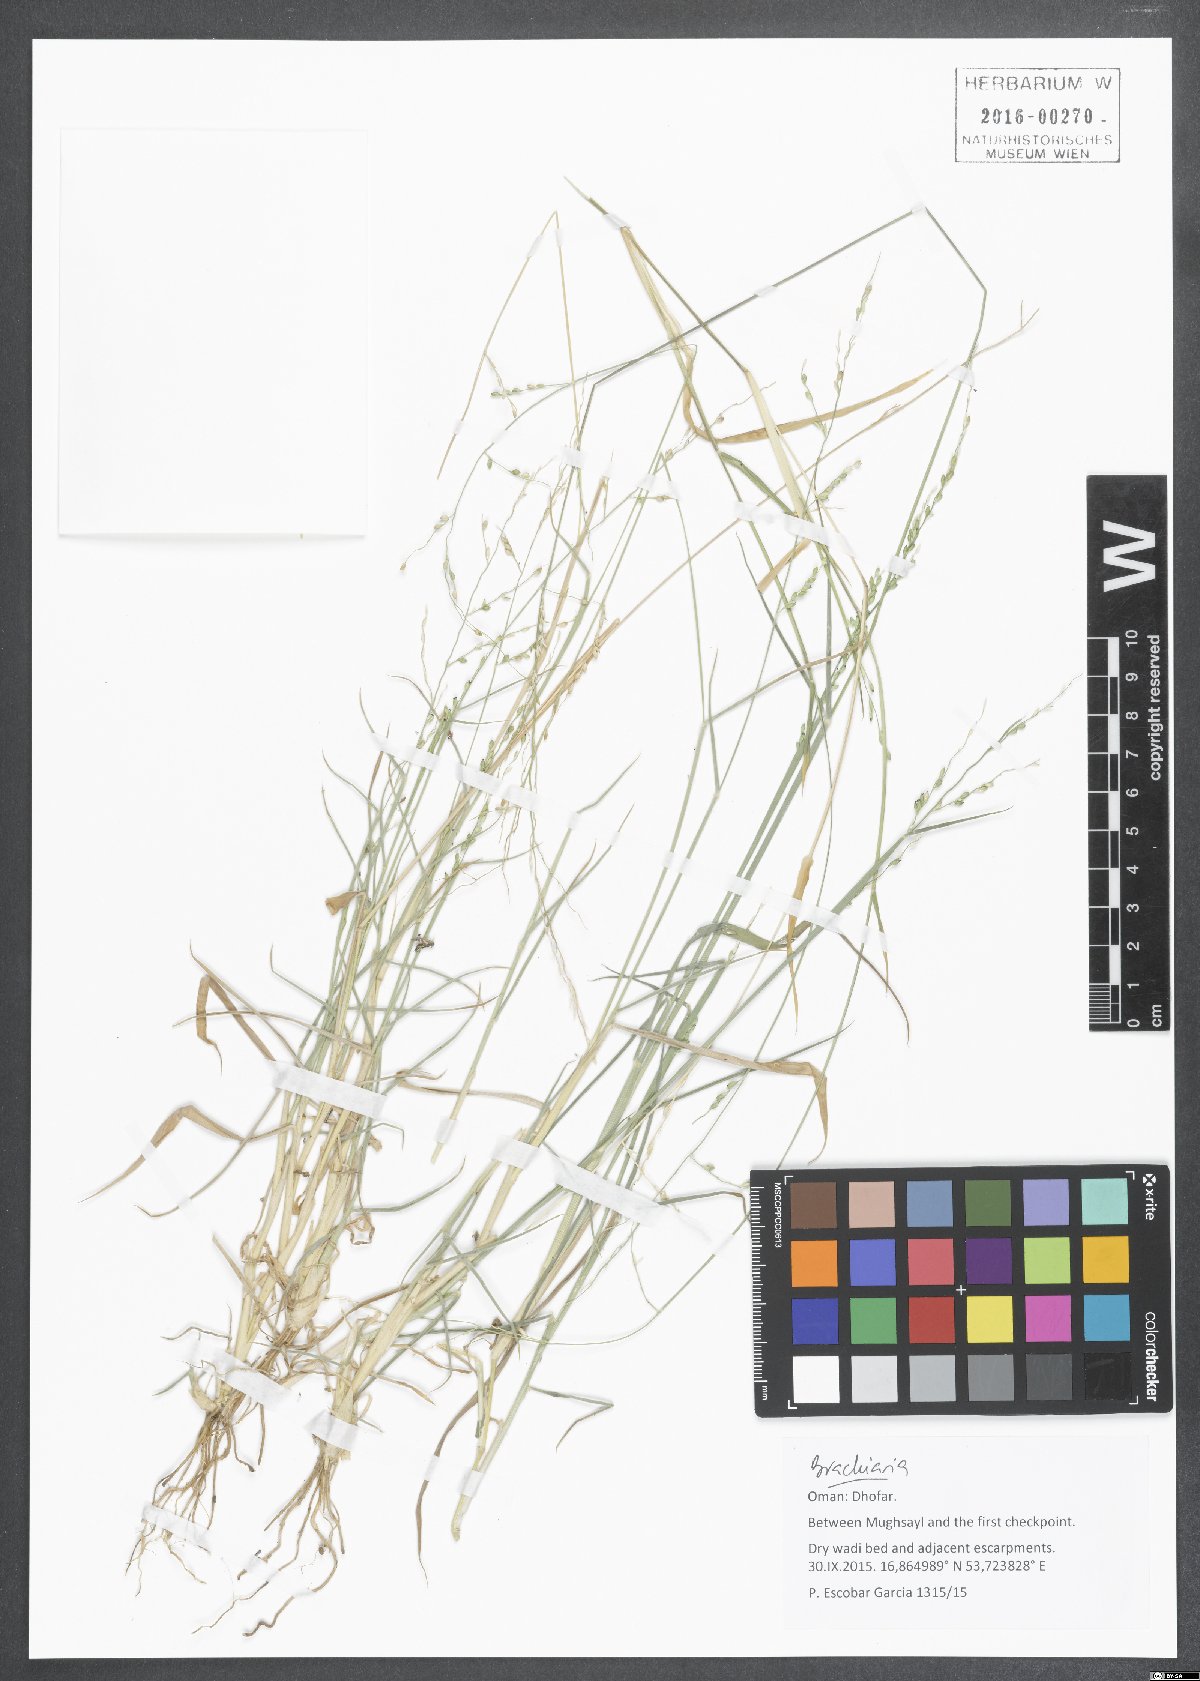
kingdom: Plantae
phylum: Tracheophyta
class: Liliopsida
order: Poales
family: Poaceae
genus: Brachiaria
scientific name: Brachiaria
